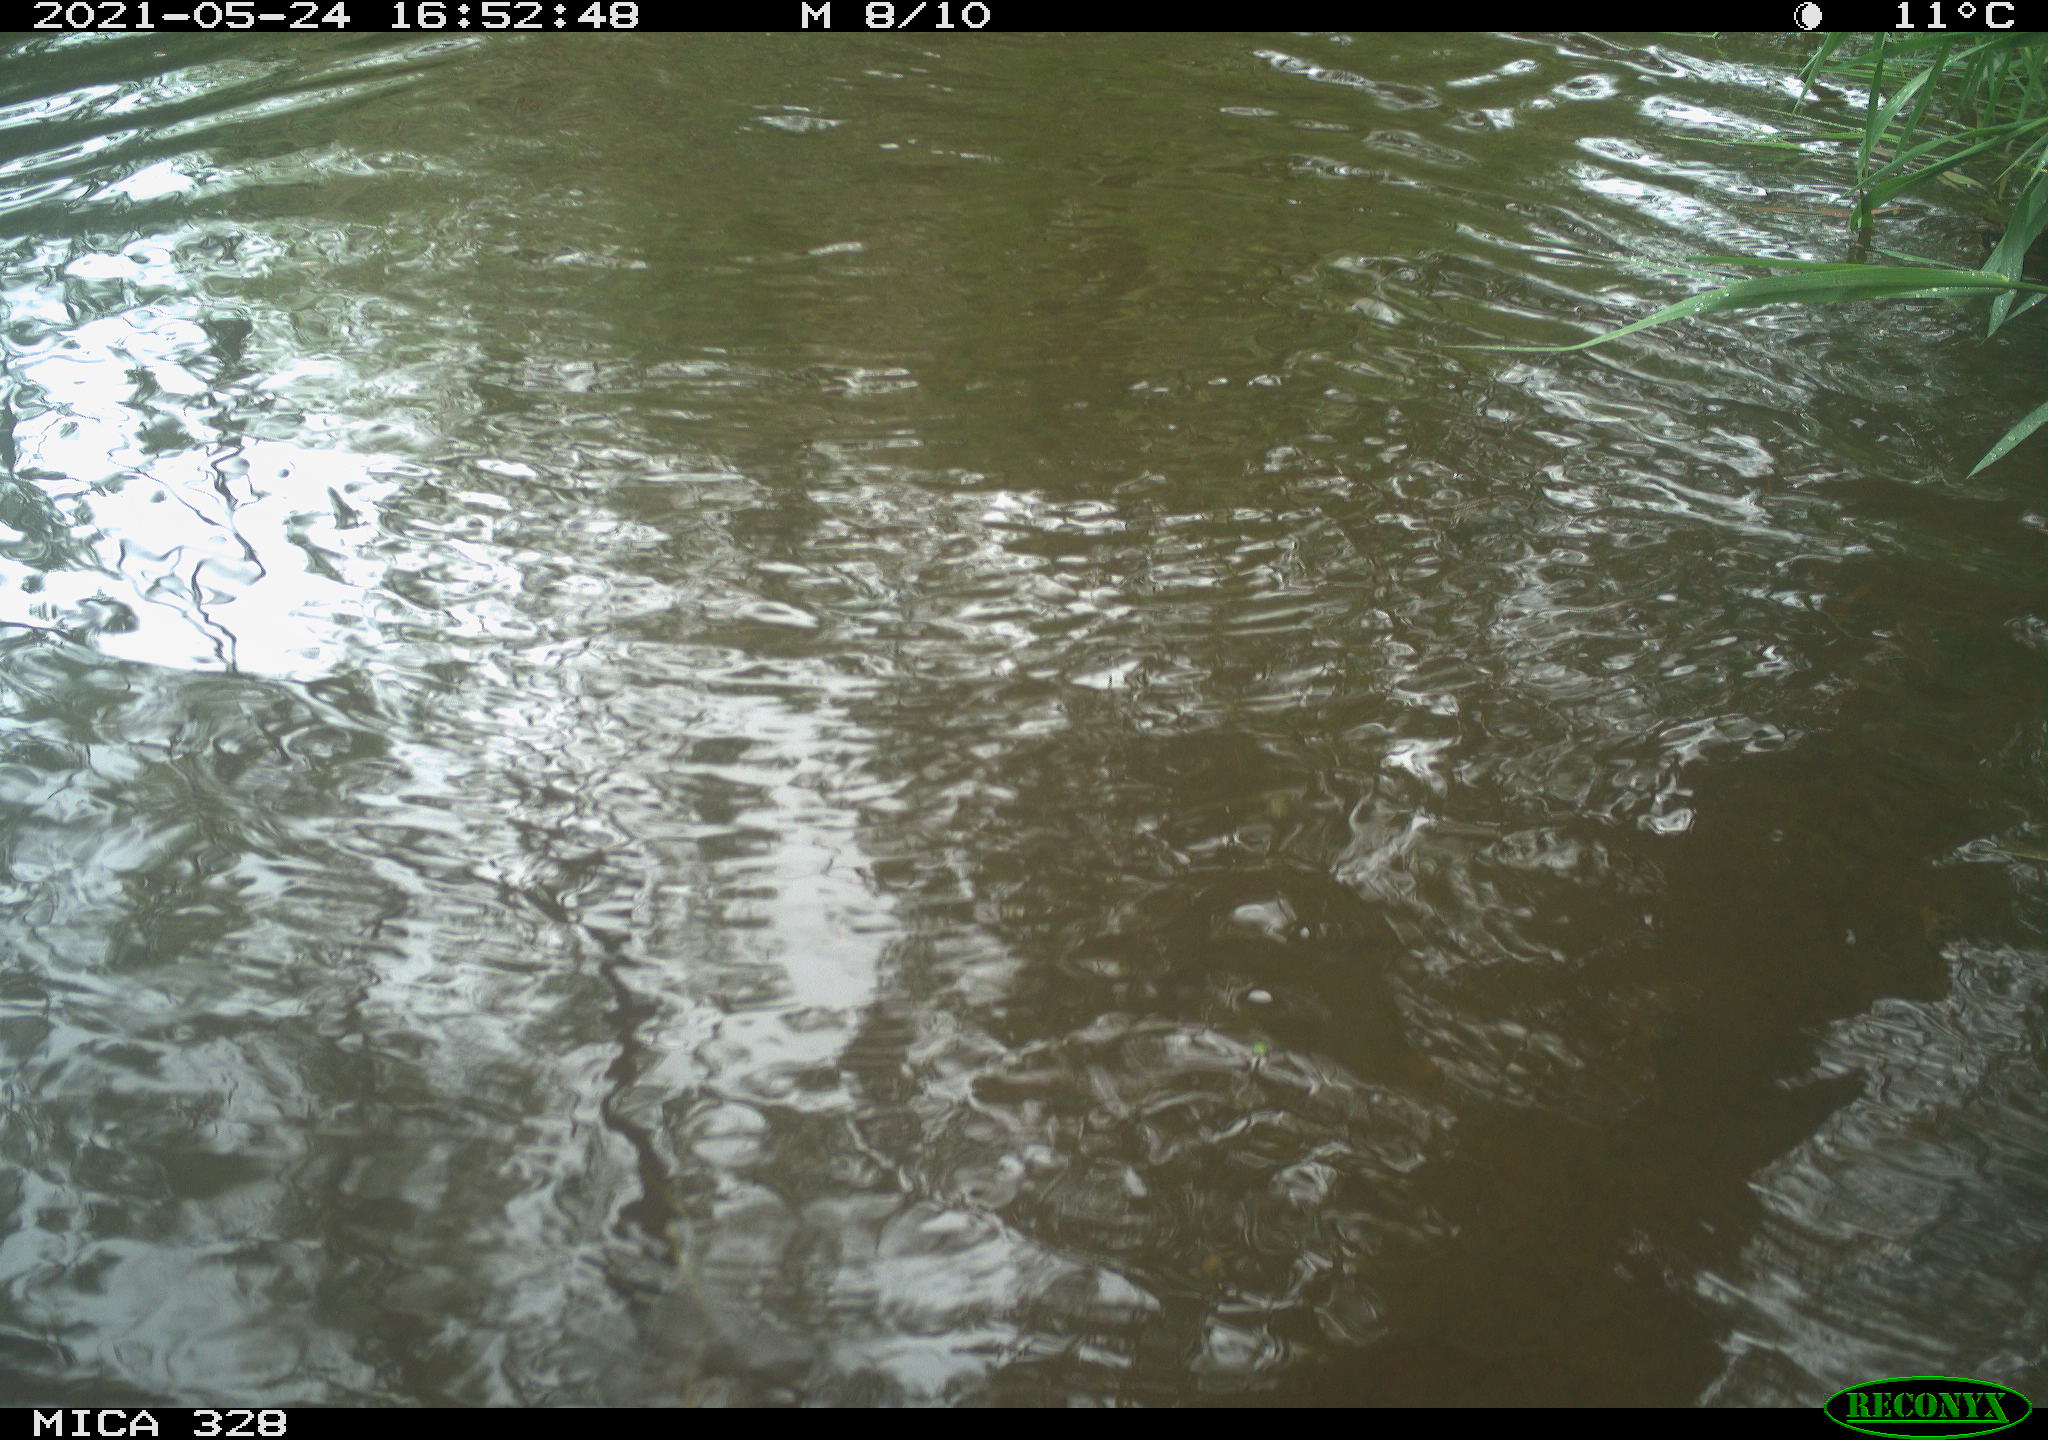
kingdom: Animalia
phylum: Chordata
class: Aves
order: Anseriformes
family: Anatidae
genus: Aix
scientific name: Aix galericulata
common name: Mandarin duck
